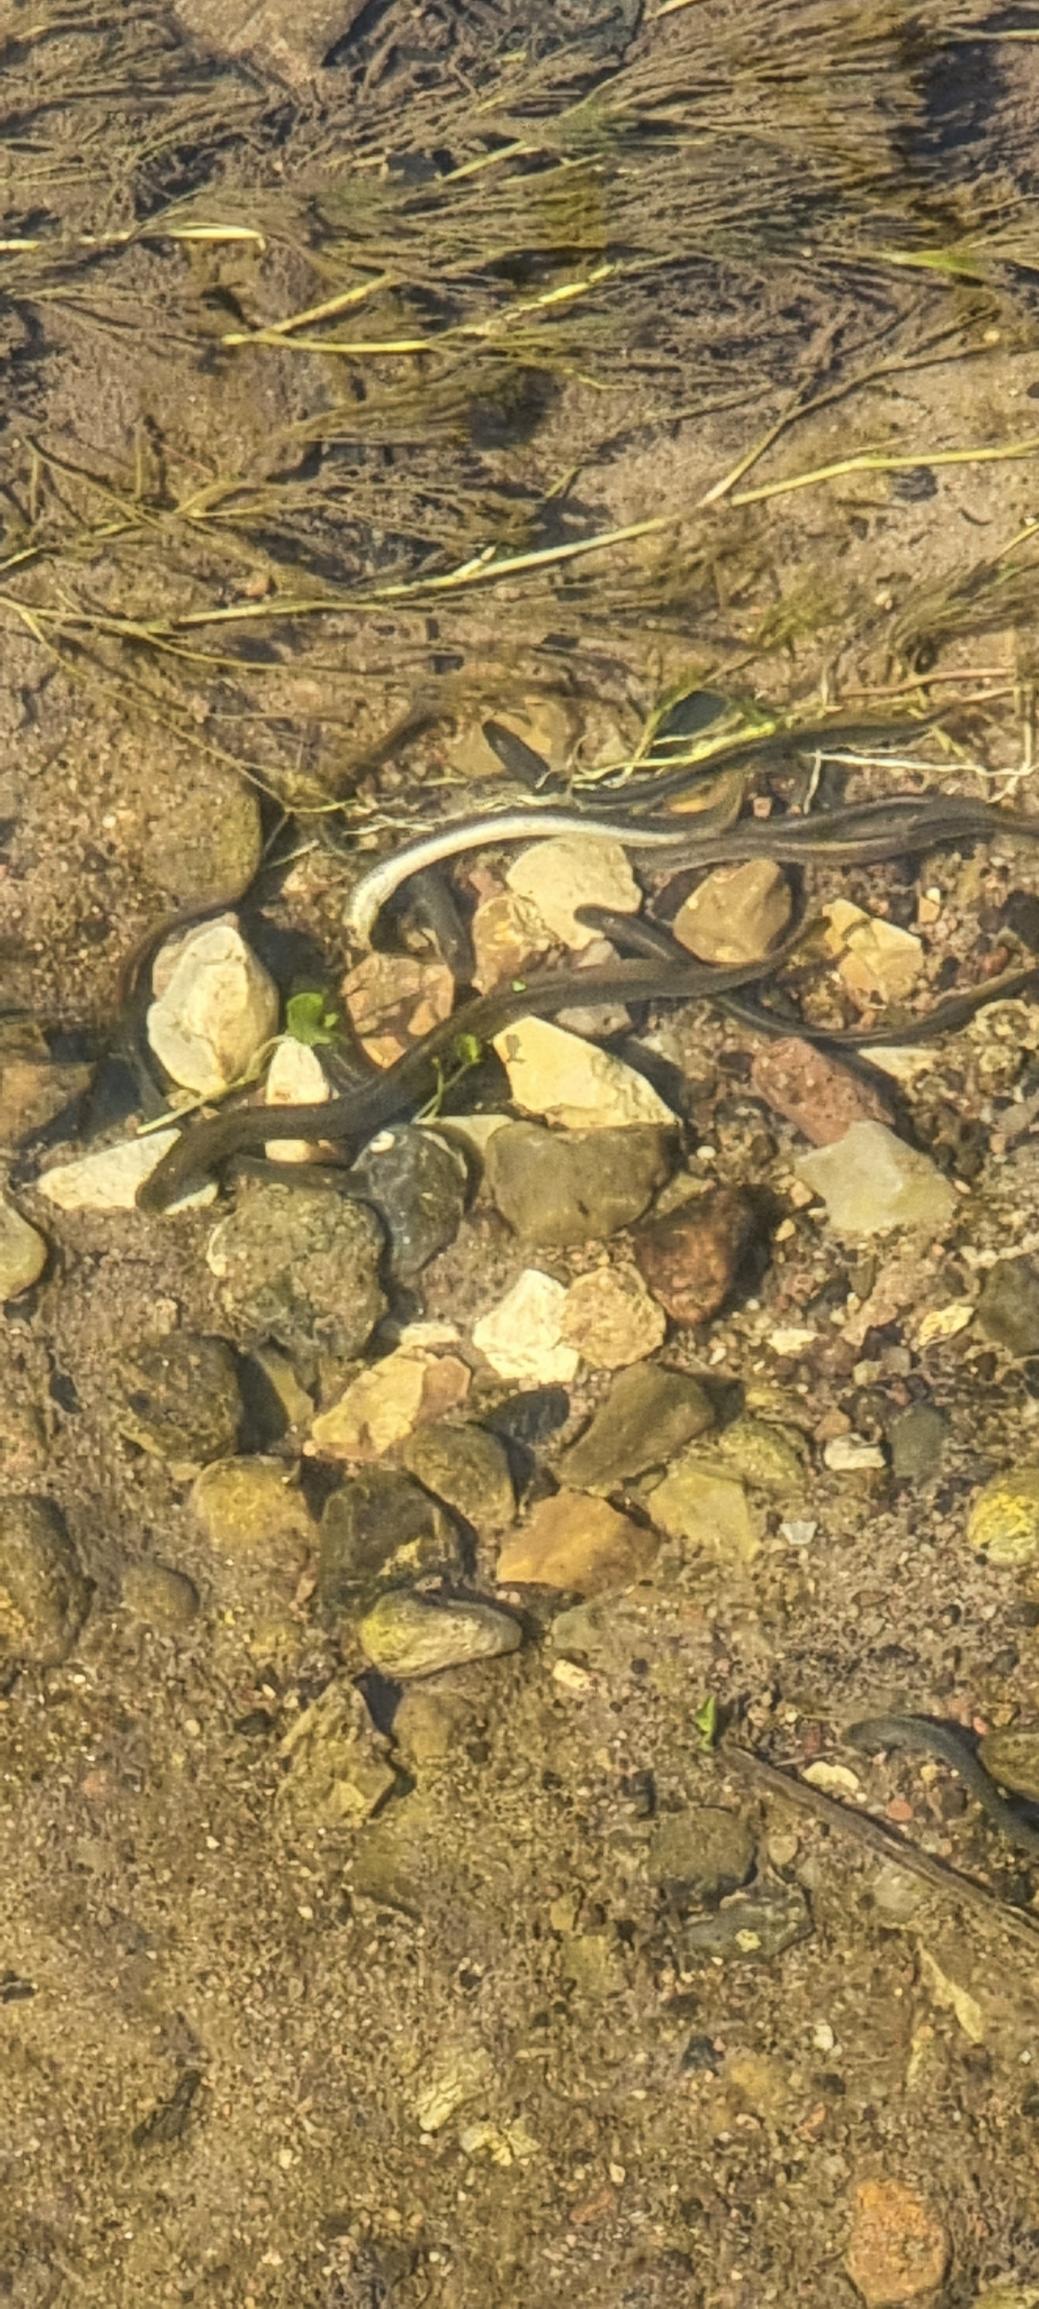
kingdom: Animalia
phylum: Chordata
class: Petromyzonti
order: Petromyzontiformes
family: Petromyzontidae
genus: Lampetra
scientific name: Lampetra planeri
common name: Bæklampret
